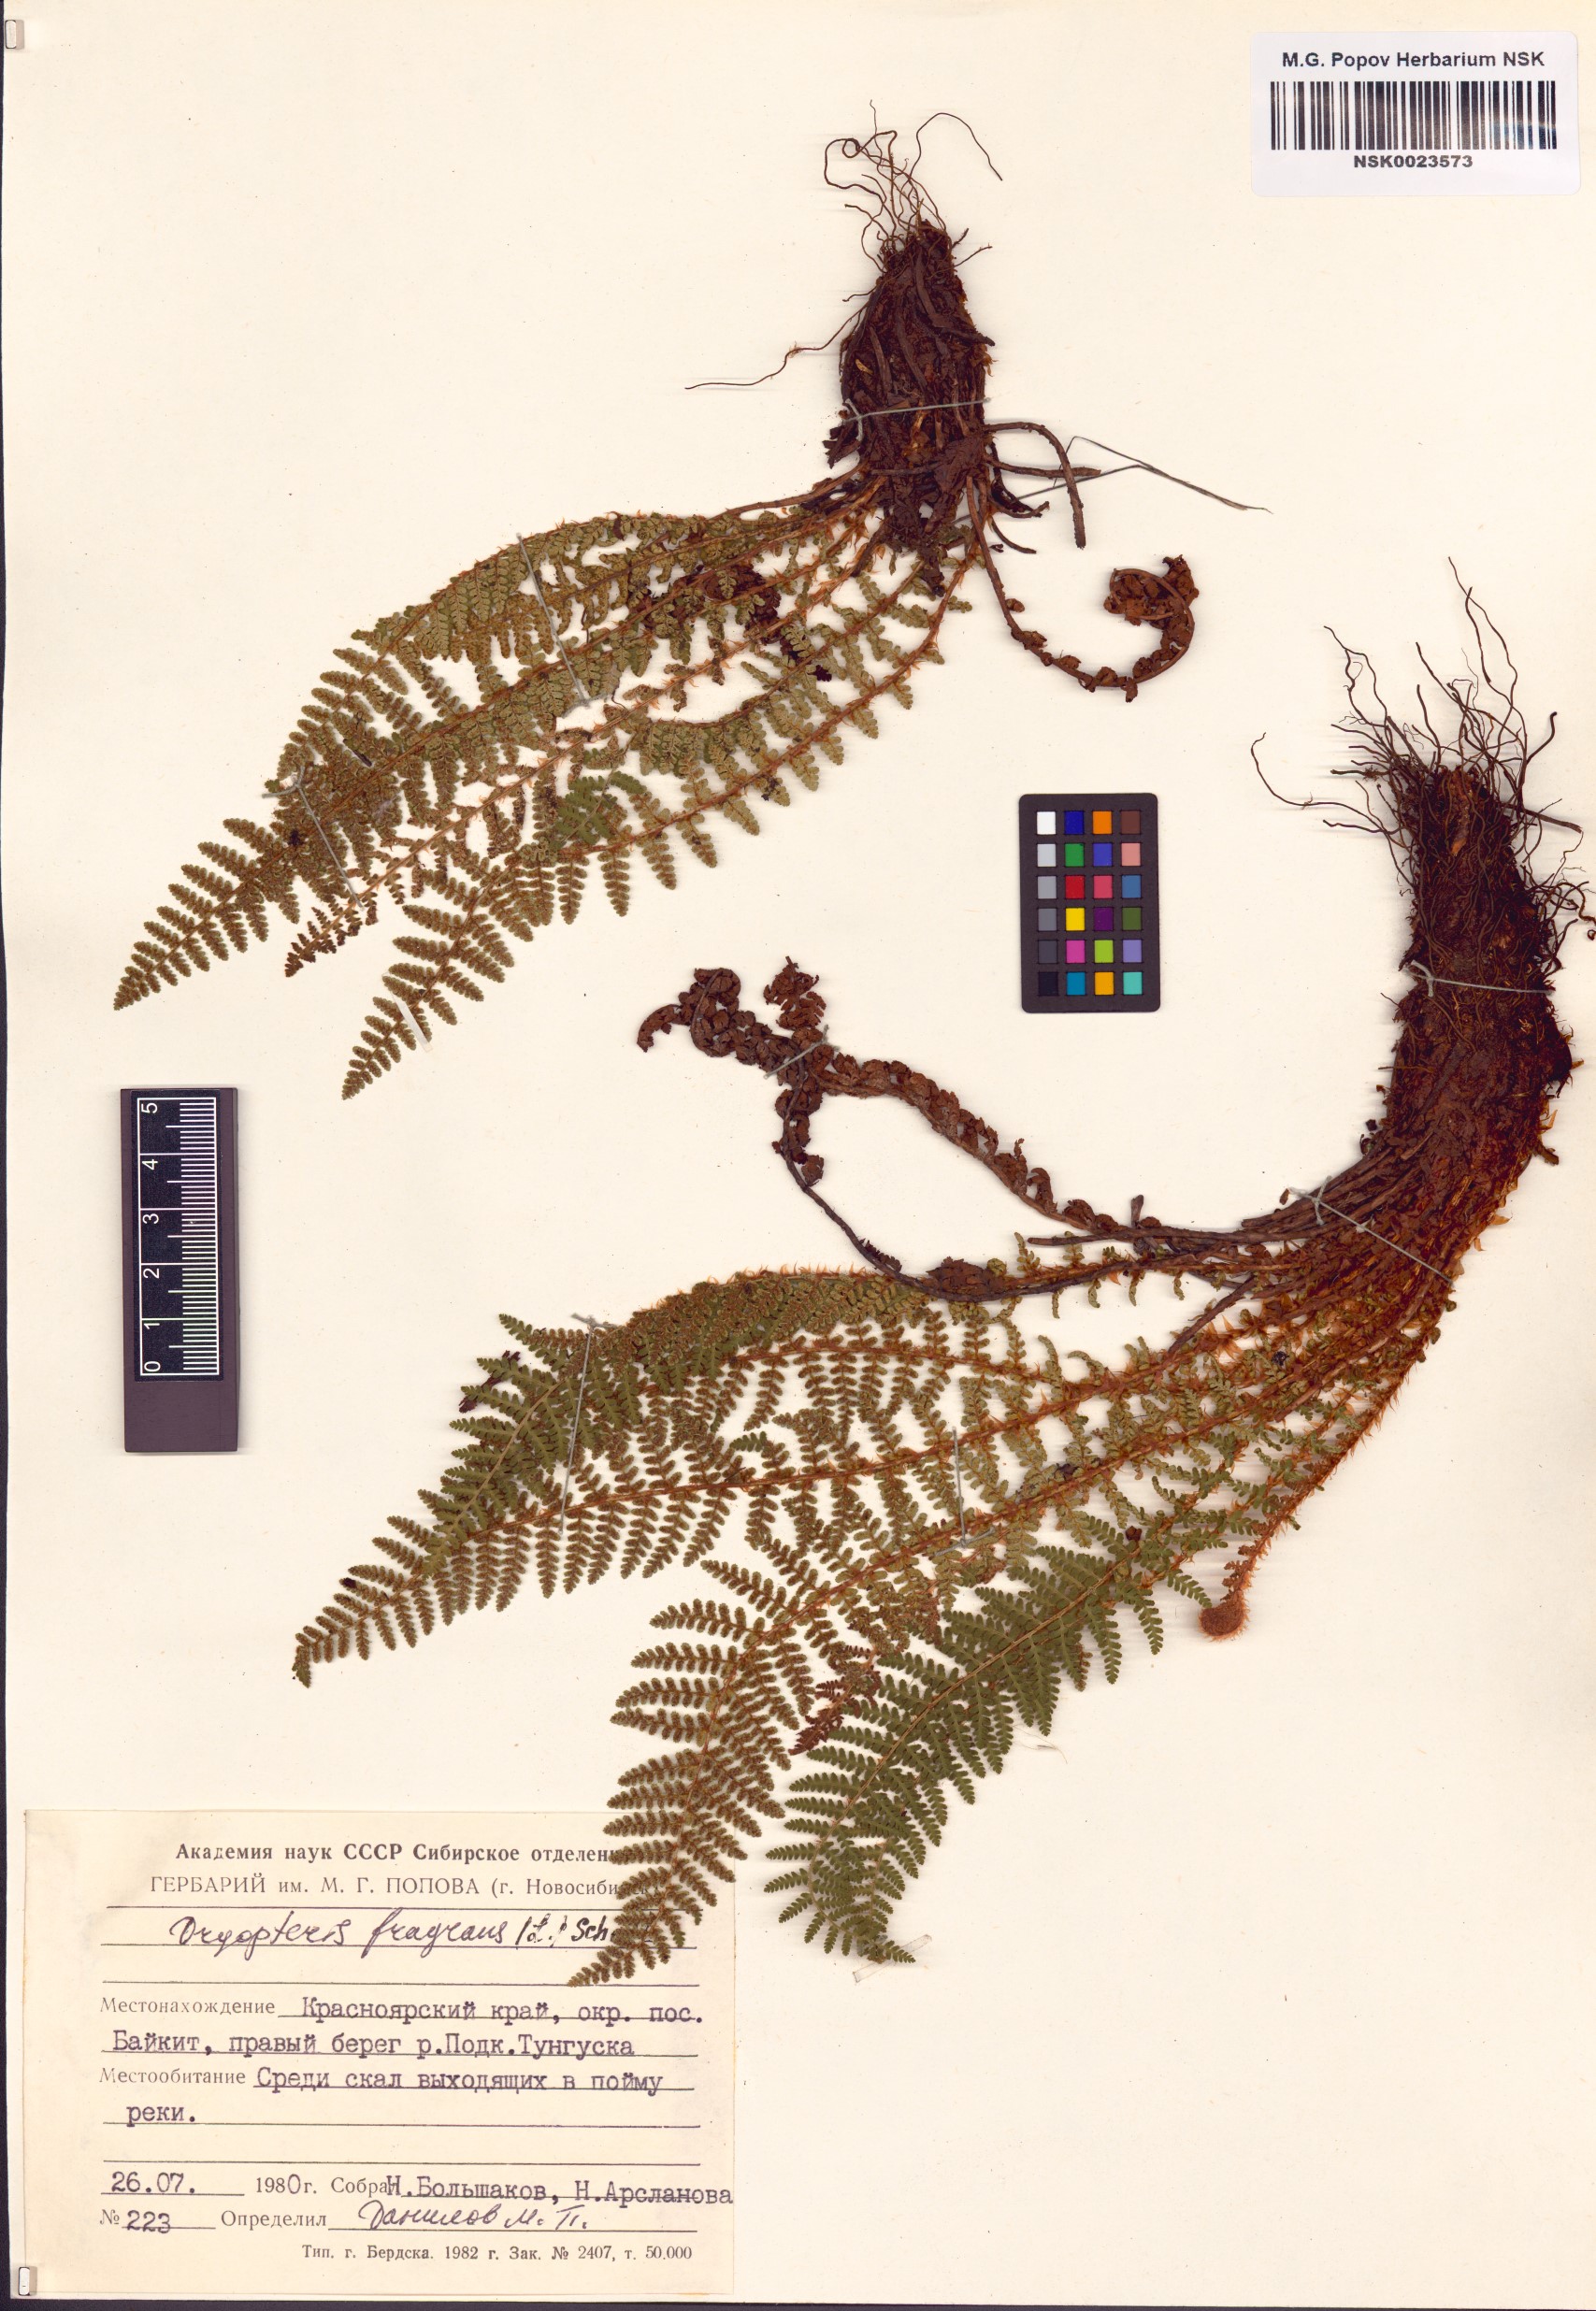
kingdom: Plantae
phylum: Tracheophyta
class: Polypodiopsida
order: Polypodiales
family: Dryopteridaceae
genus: Dryopteris
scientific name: Dryopteris fragrans
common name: Fragrant wood fern
